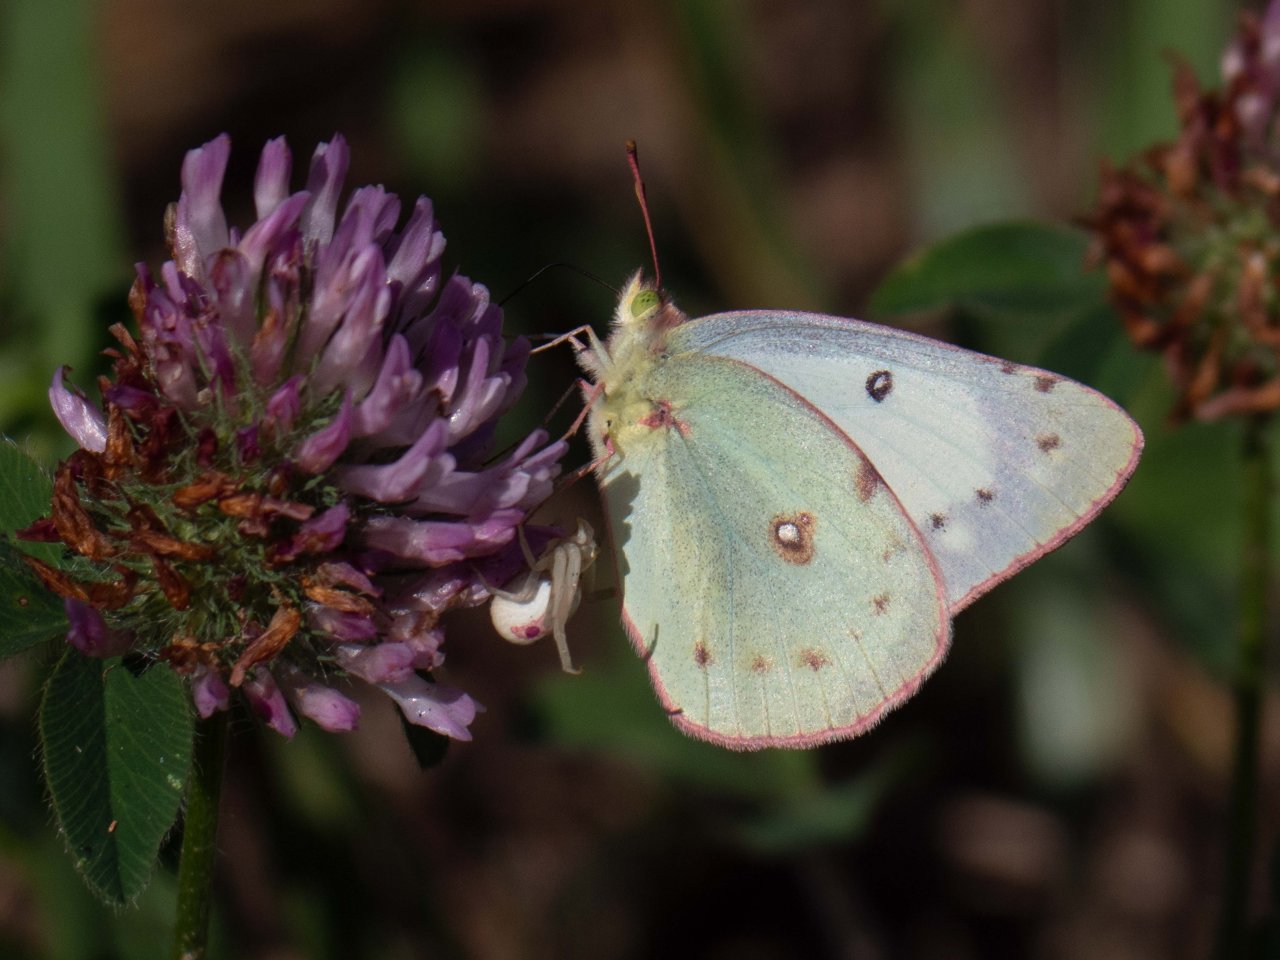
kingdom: Animalia
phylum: Arthropoda
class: Insecta
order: Lepidoptera
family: Pieridae
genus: Colias
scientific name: Colias philodice
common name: Clouded Sulphur
